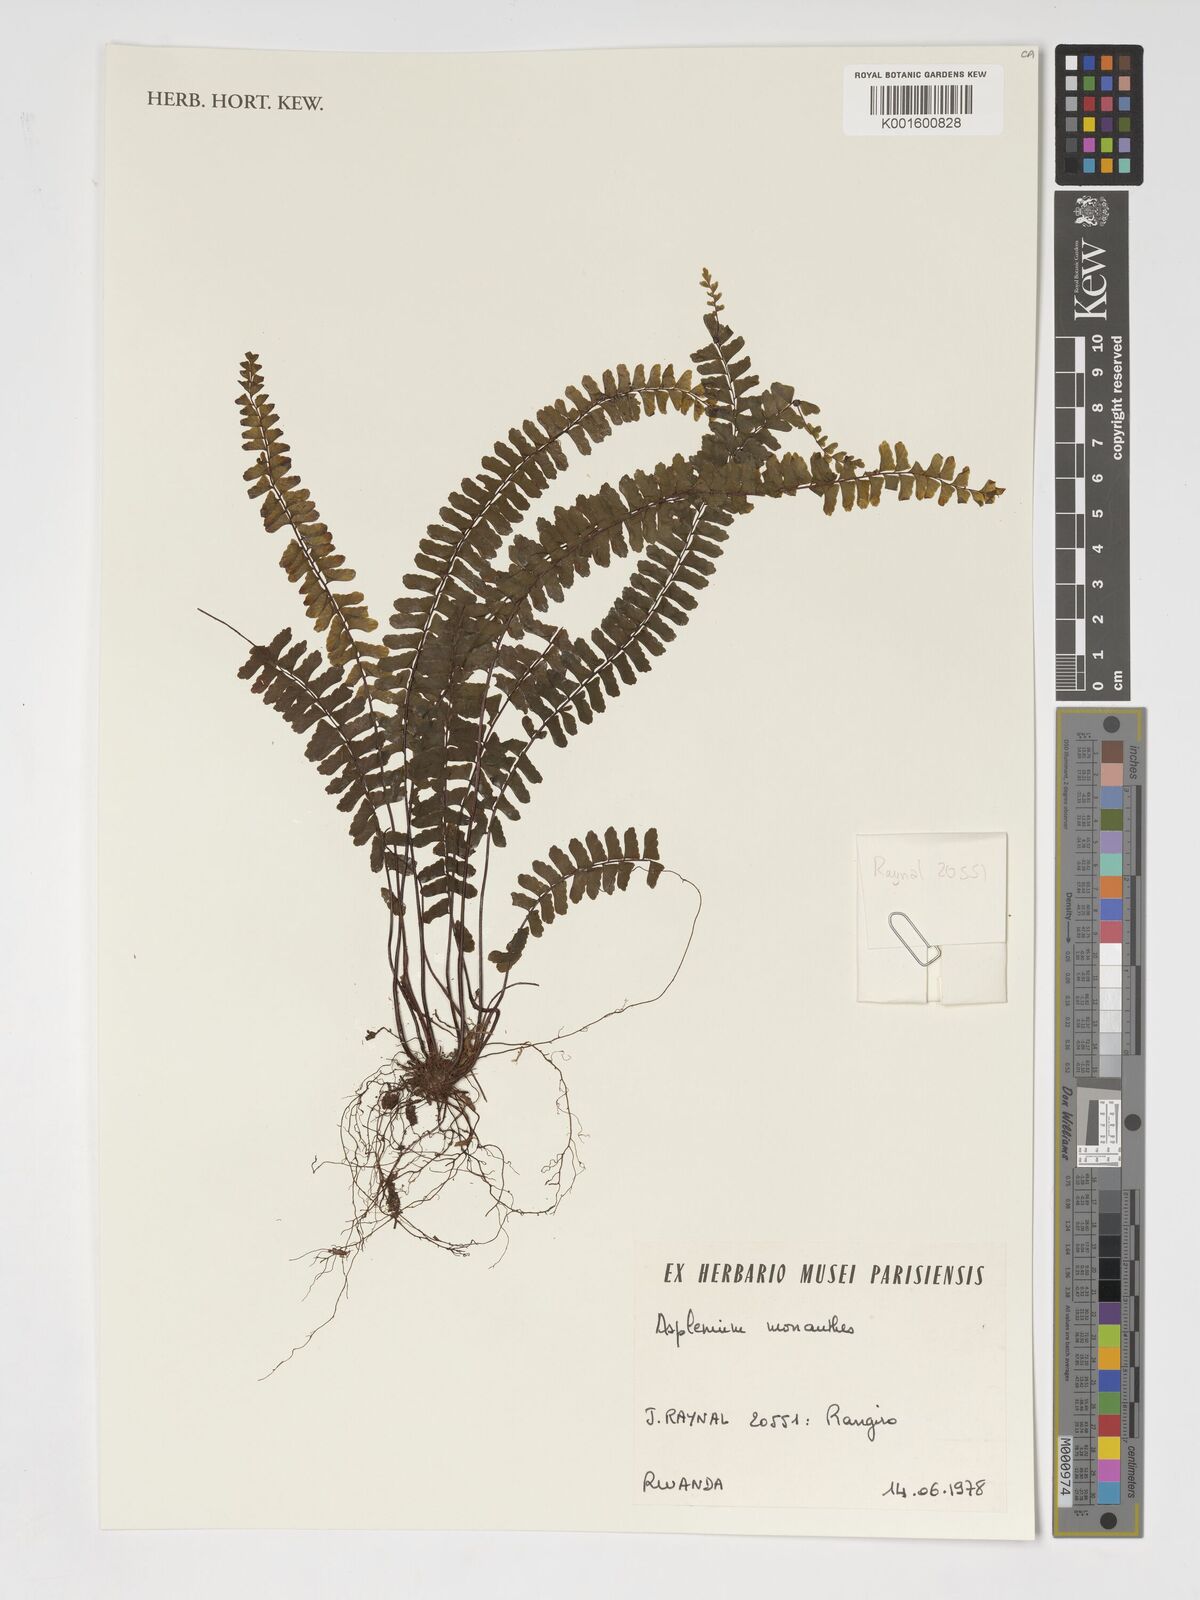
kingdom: Plantae
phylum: Tracheophyta
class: Polypodiopsida
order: Polypodiales
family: Aspleniaceae
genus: Asplenium
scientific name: Asplenium monanthes
